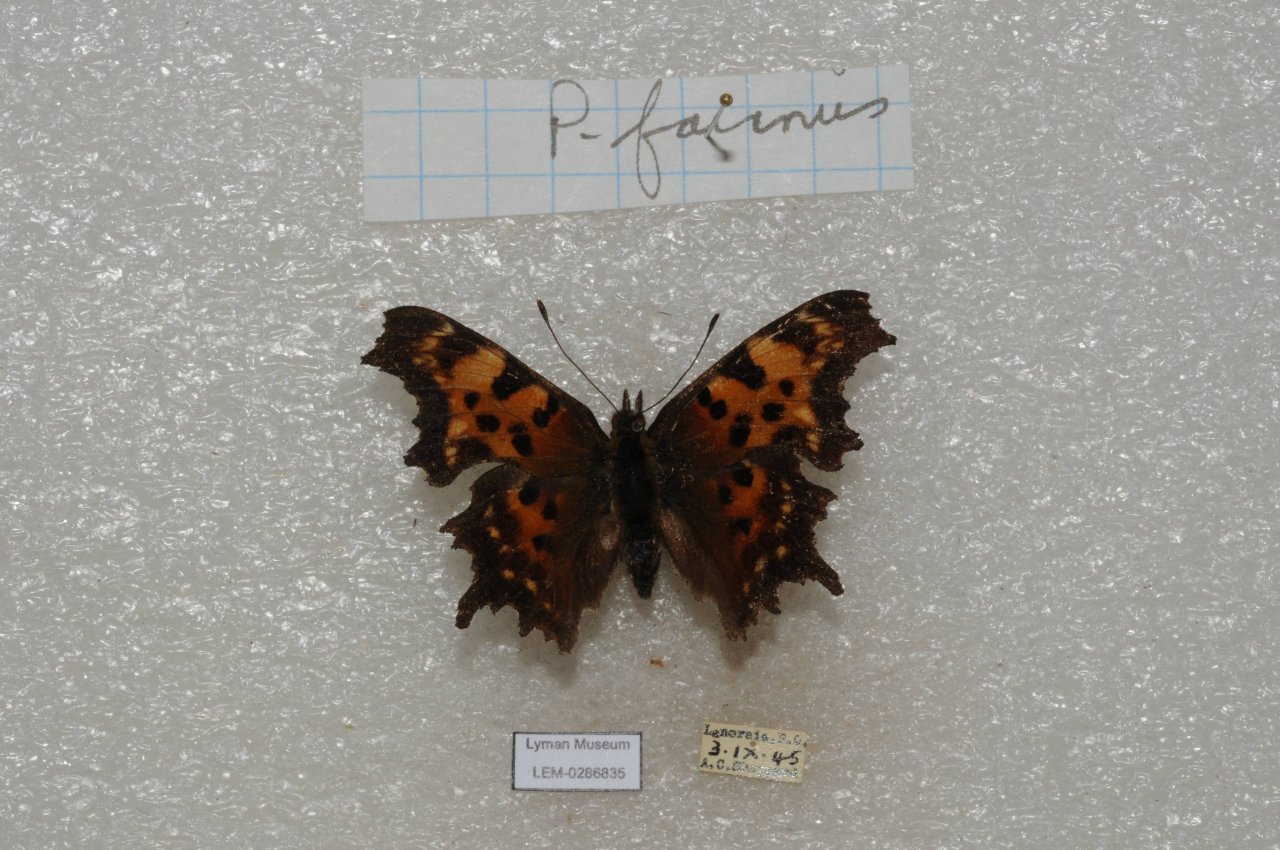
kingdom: Animalia
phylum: Arthropoda
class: Insecta
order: Lepidoptera
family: Nymphalidae
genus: Polygonia
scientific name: Polygonia faunus
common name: Green Comma
